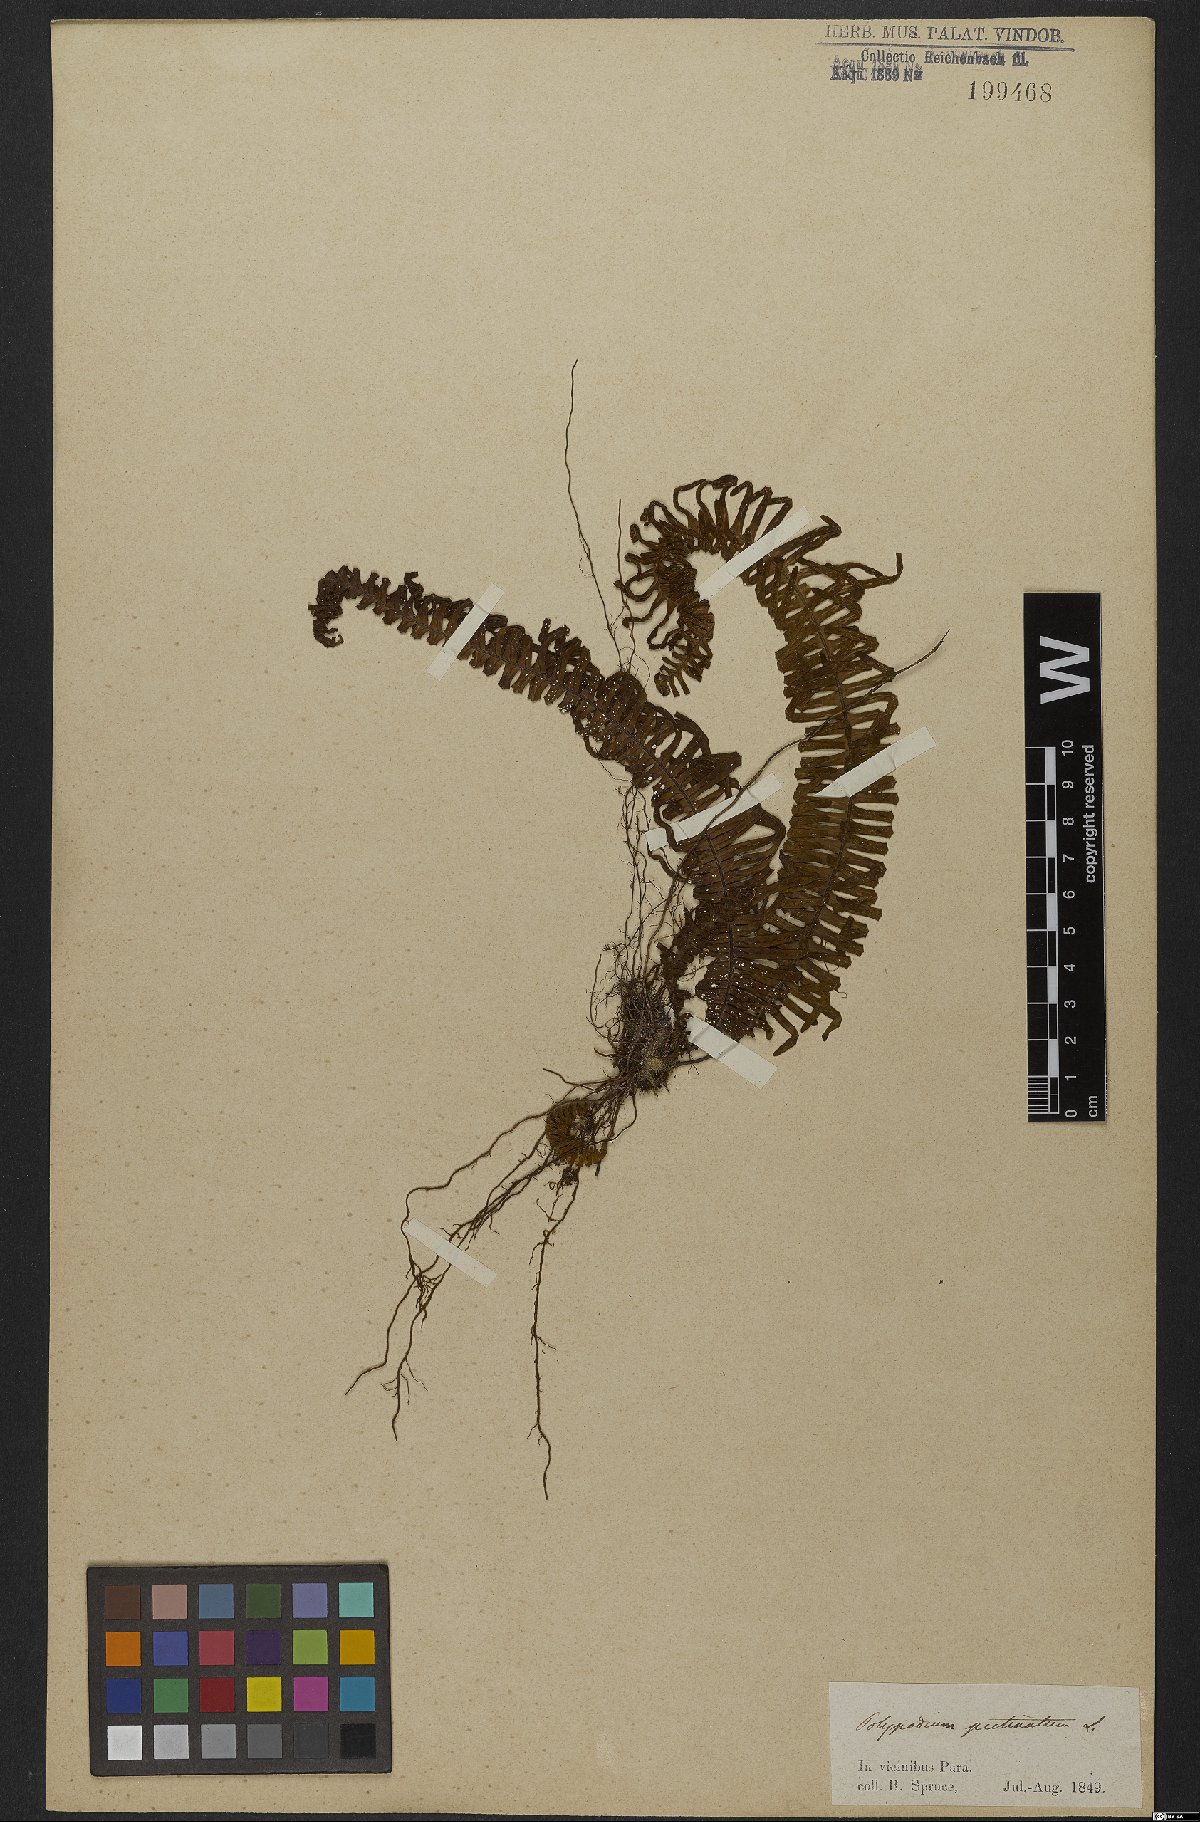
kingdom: Plantae
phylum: Tracheophyta
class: Polypodiopsida
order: Polypodiales
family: Polypodiaceae
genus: Pecluma
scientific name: Pecluma pectinata
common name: Msasa fern
